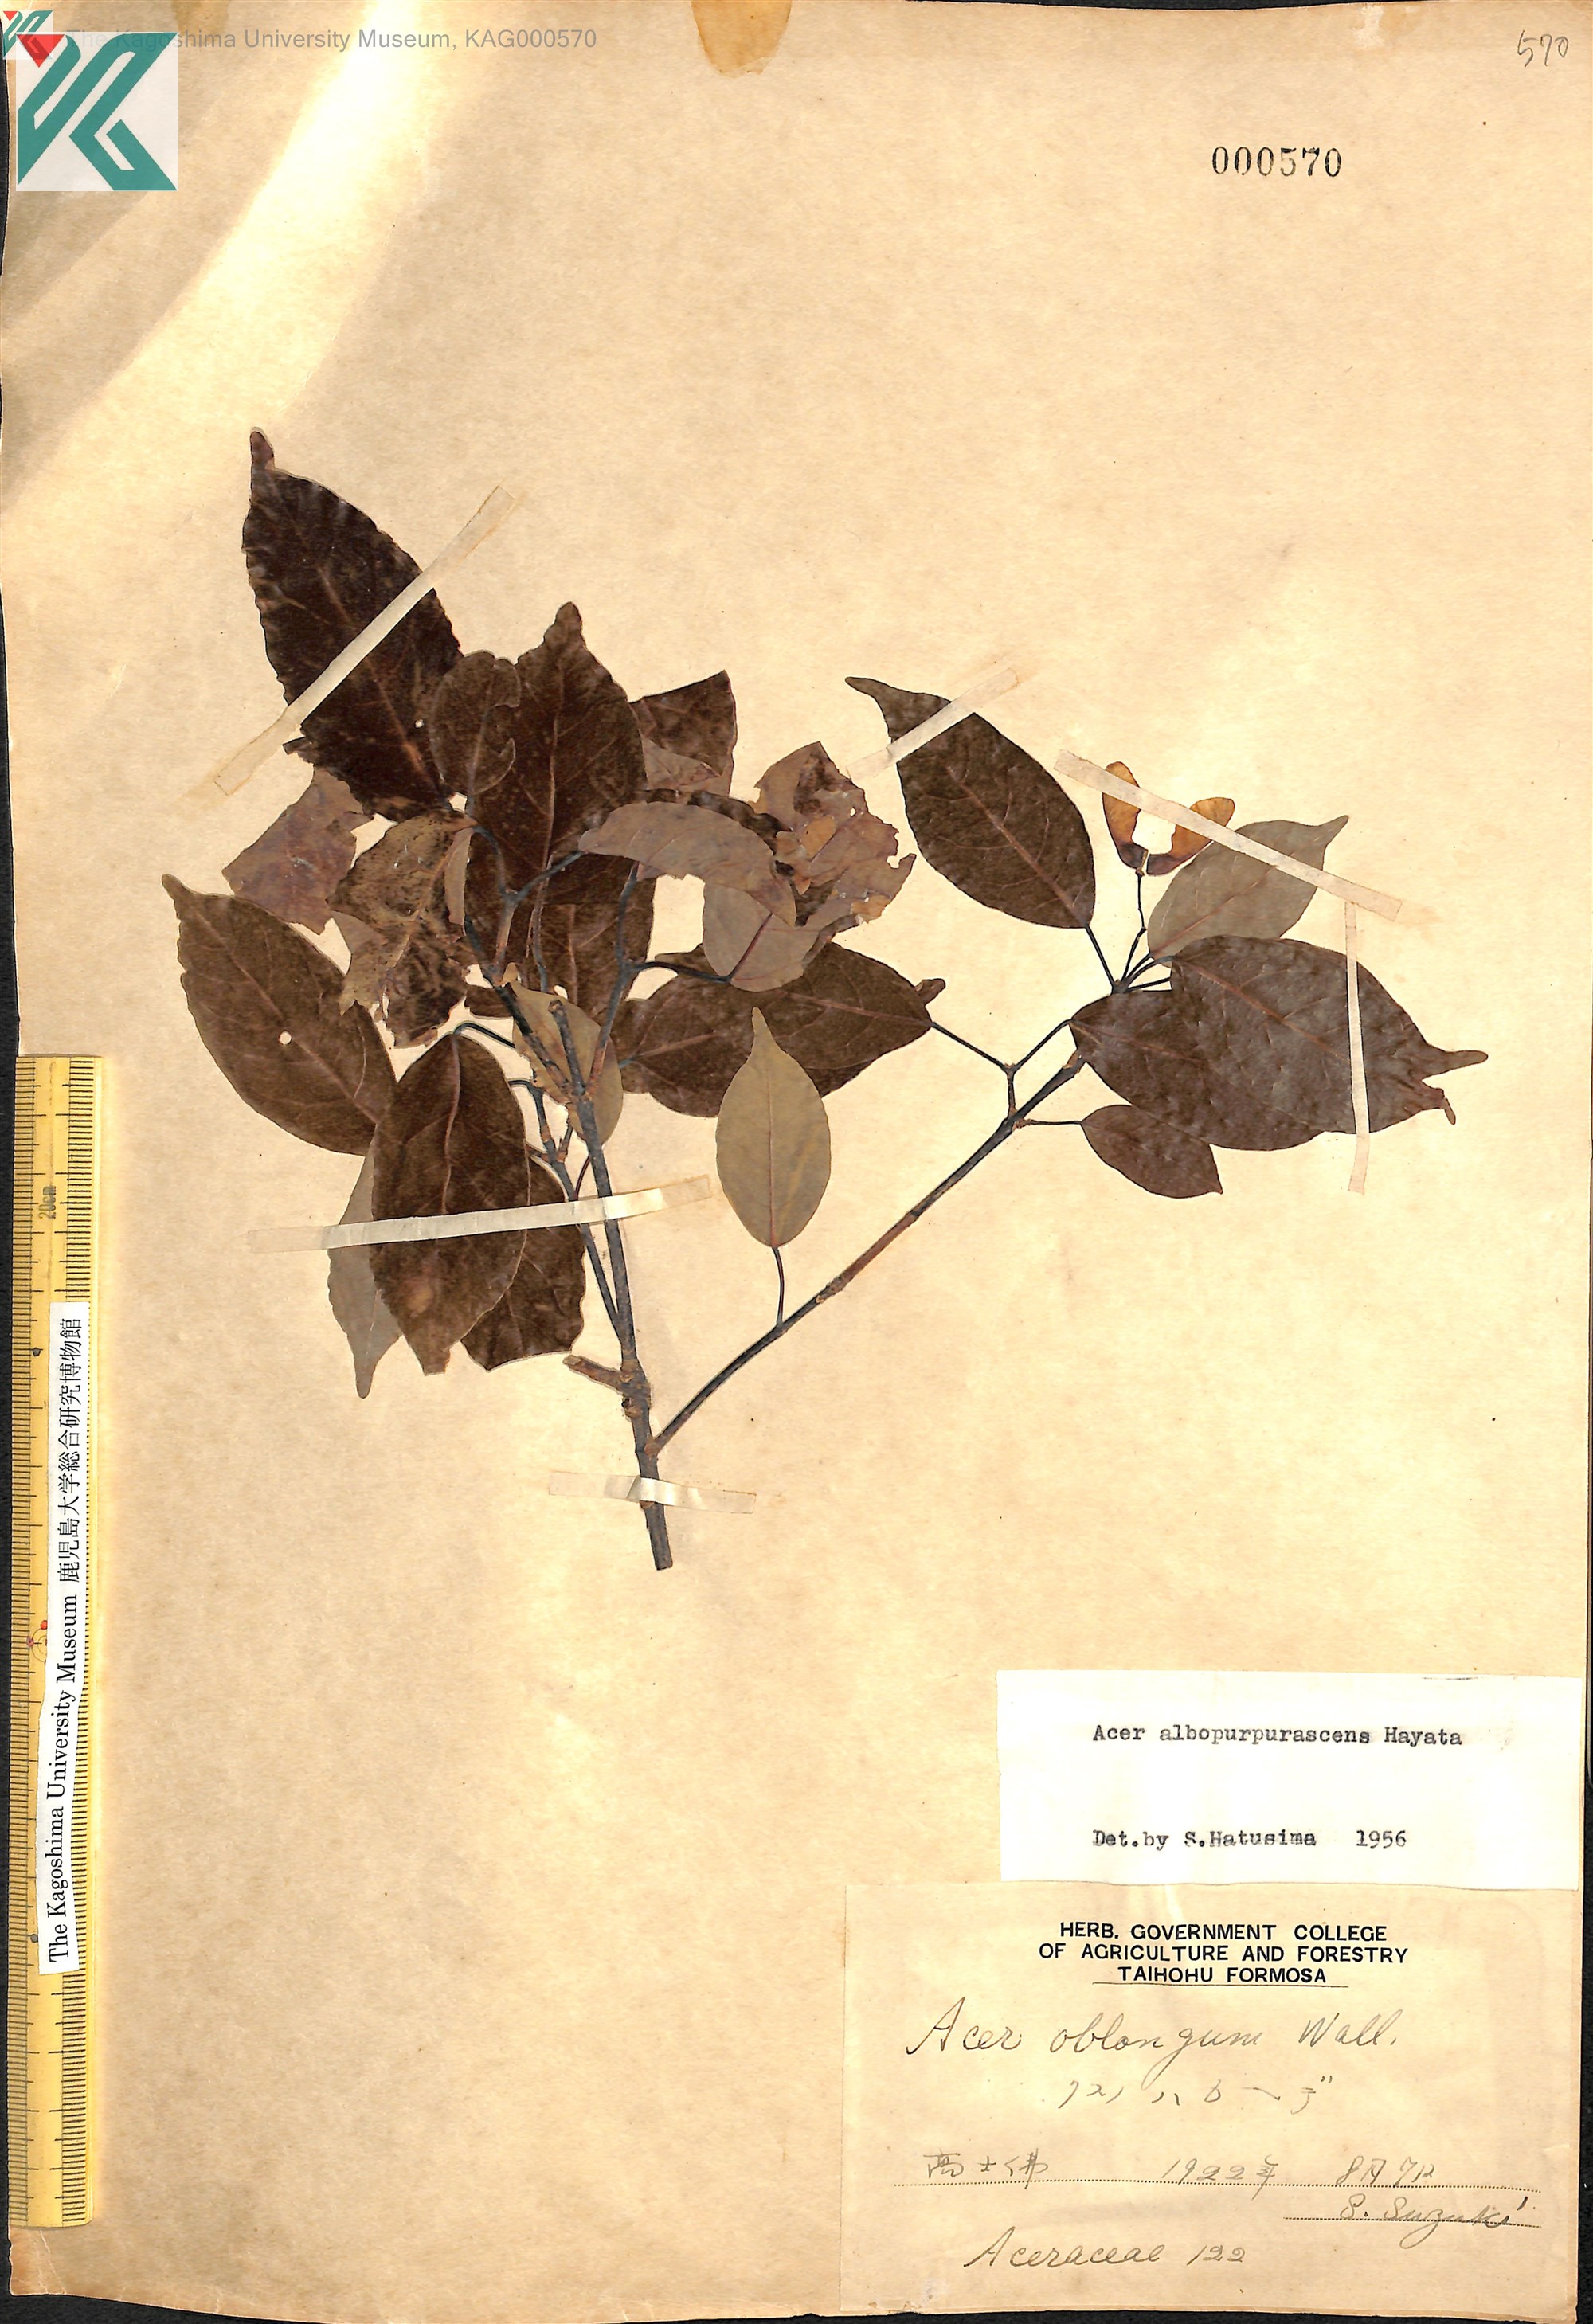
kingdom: Plantae
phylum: Tracheophyta
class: Magnoliopsida
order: Sapindales
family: Sapindaceae
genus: Acer
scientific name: Acer oblongum
